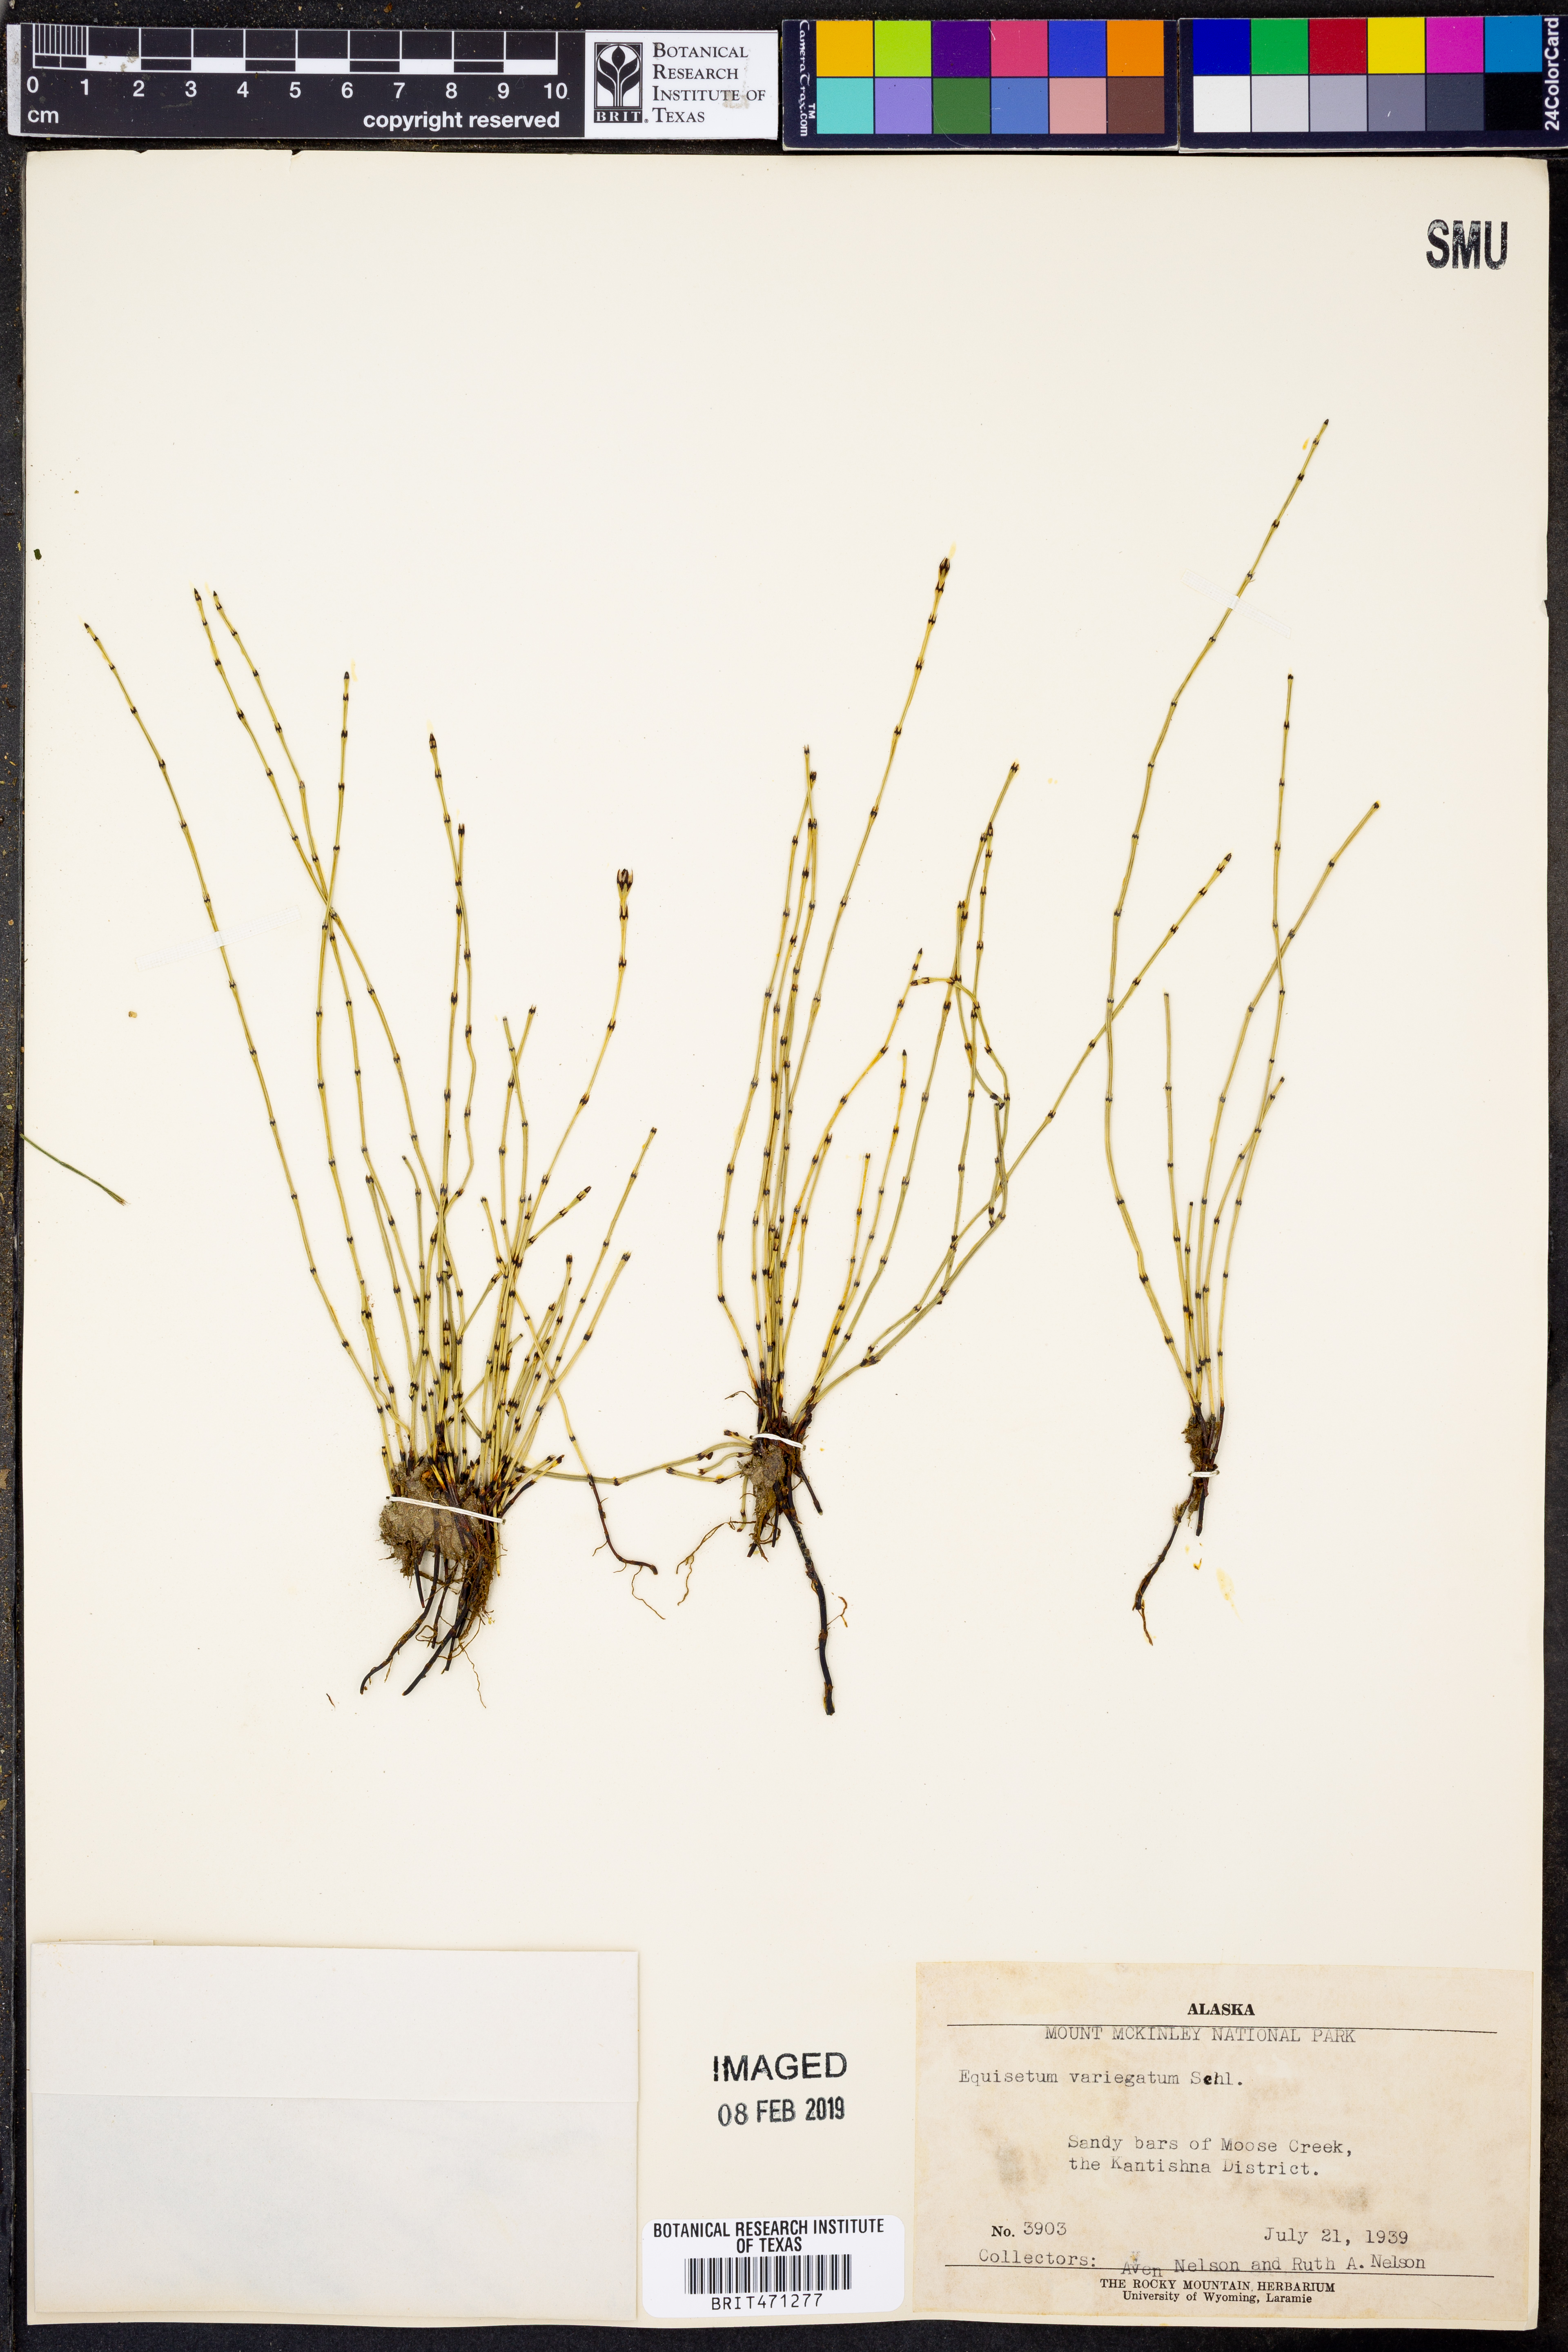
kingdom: Plantae
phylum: Tracheophyta
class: Polypodiopsida
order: Equisetales
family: Equisetaceae
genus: Equisetum
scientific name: Equisetum variegatum
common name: Variegated horsetail
